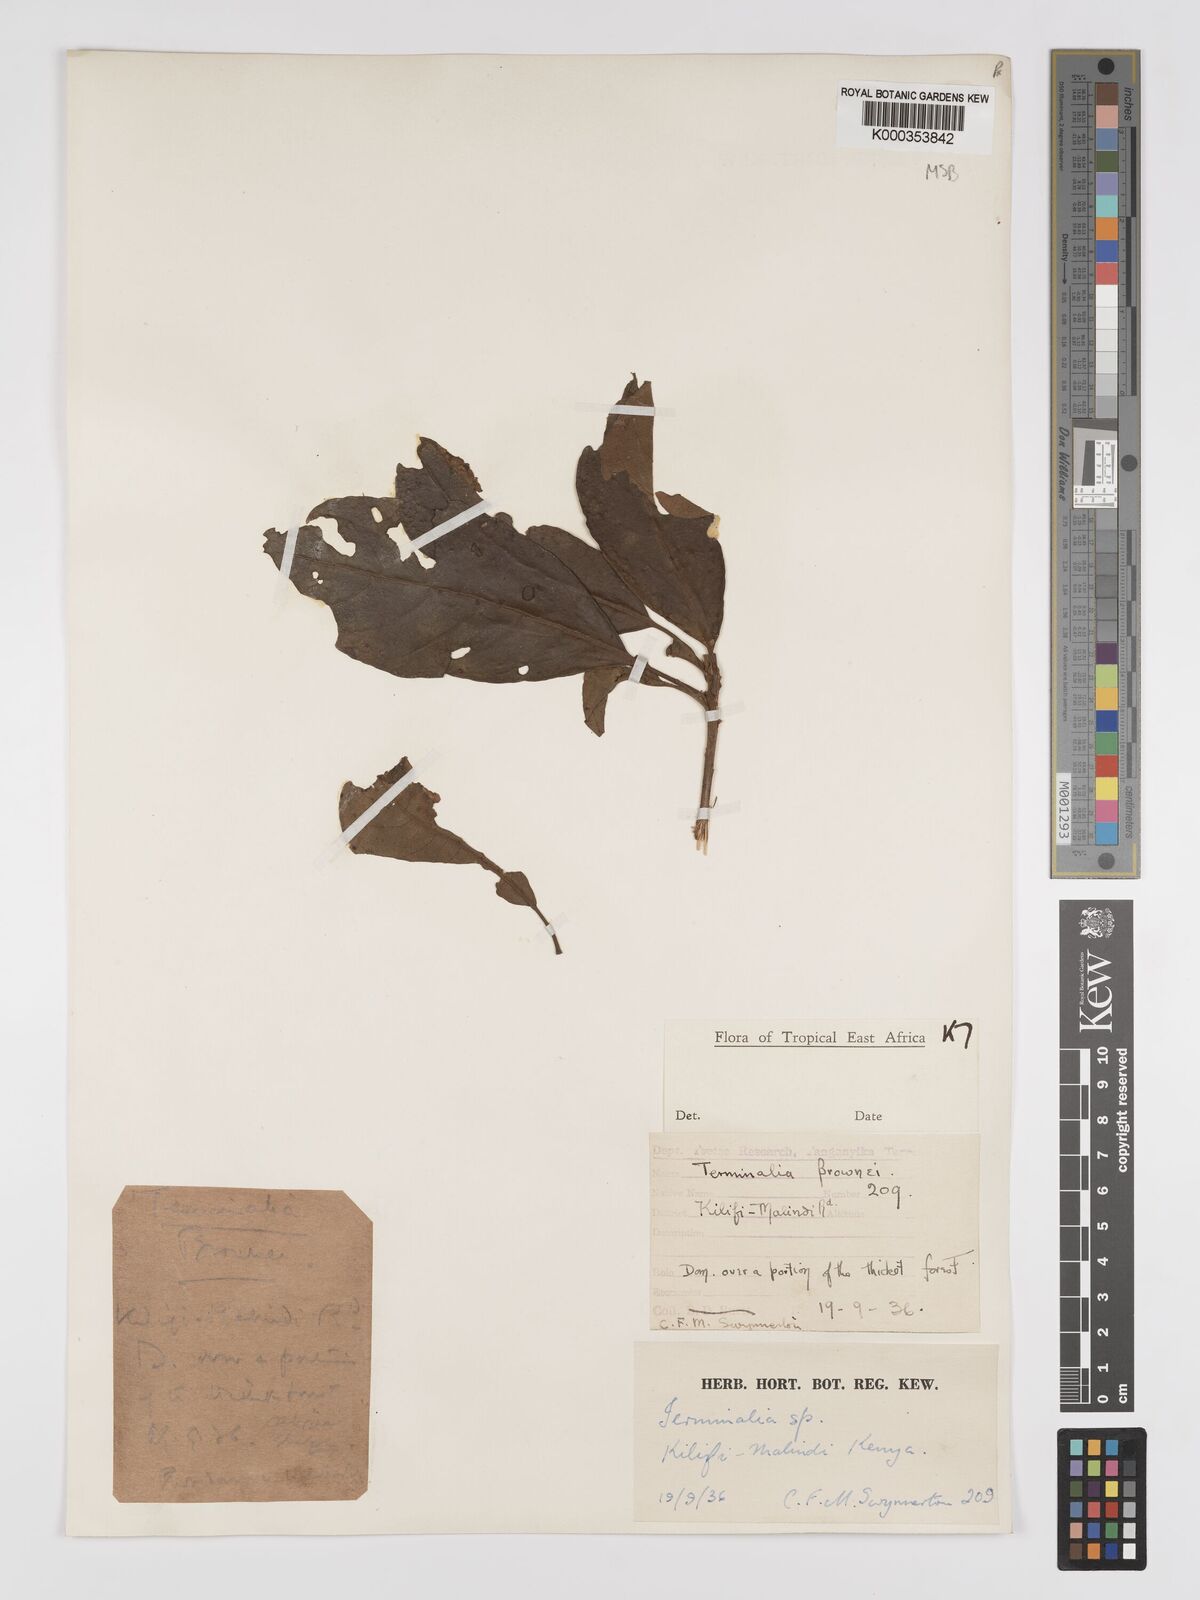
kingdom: Plantae
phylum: Tracheophyta
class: Magnoliopsida
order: Myrtales
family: Combretaceae
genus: Terminalia
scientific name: Terminalia kilimandscharica
